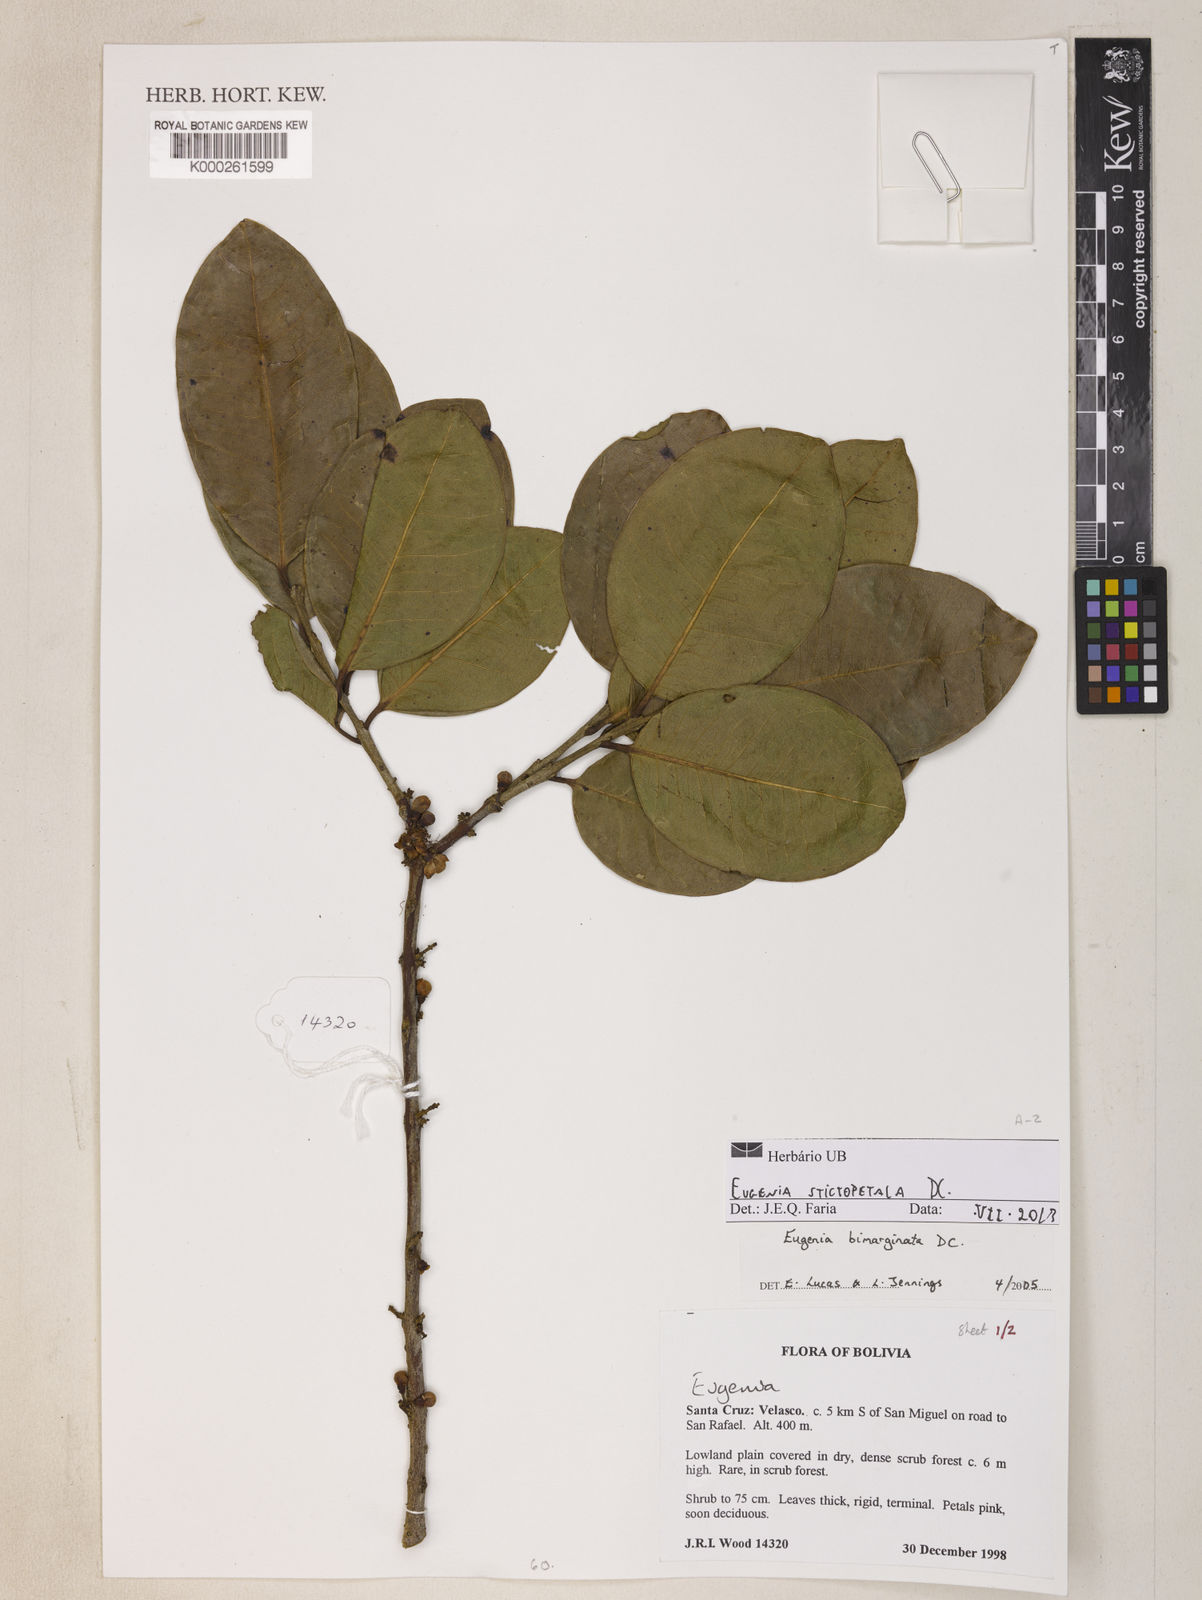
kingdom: Plantae
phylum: Tracheophyta
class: Magnoliopsida
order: Myrtales
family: Myrtaceae
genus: Eugenia
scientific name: Eugenia stictopetala
